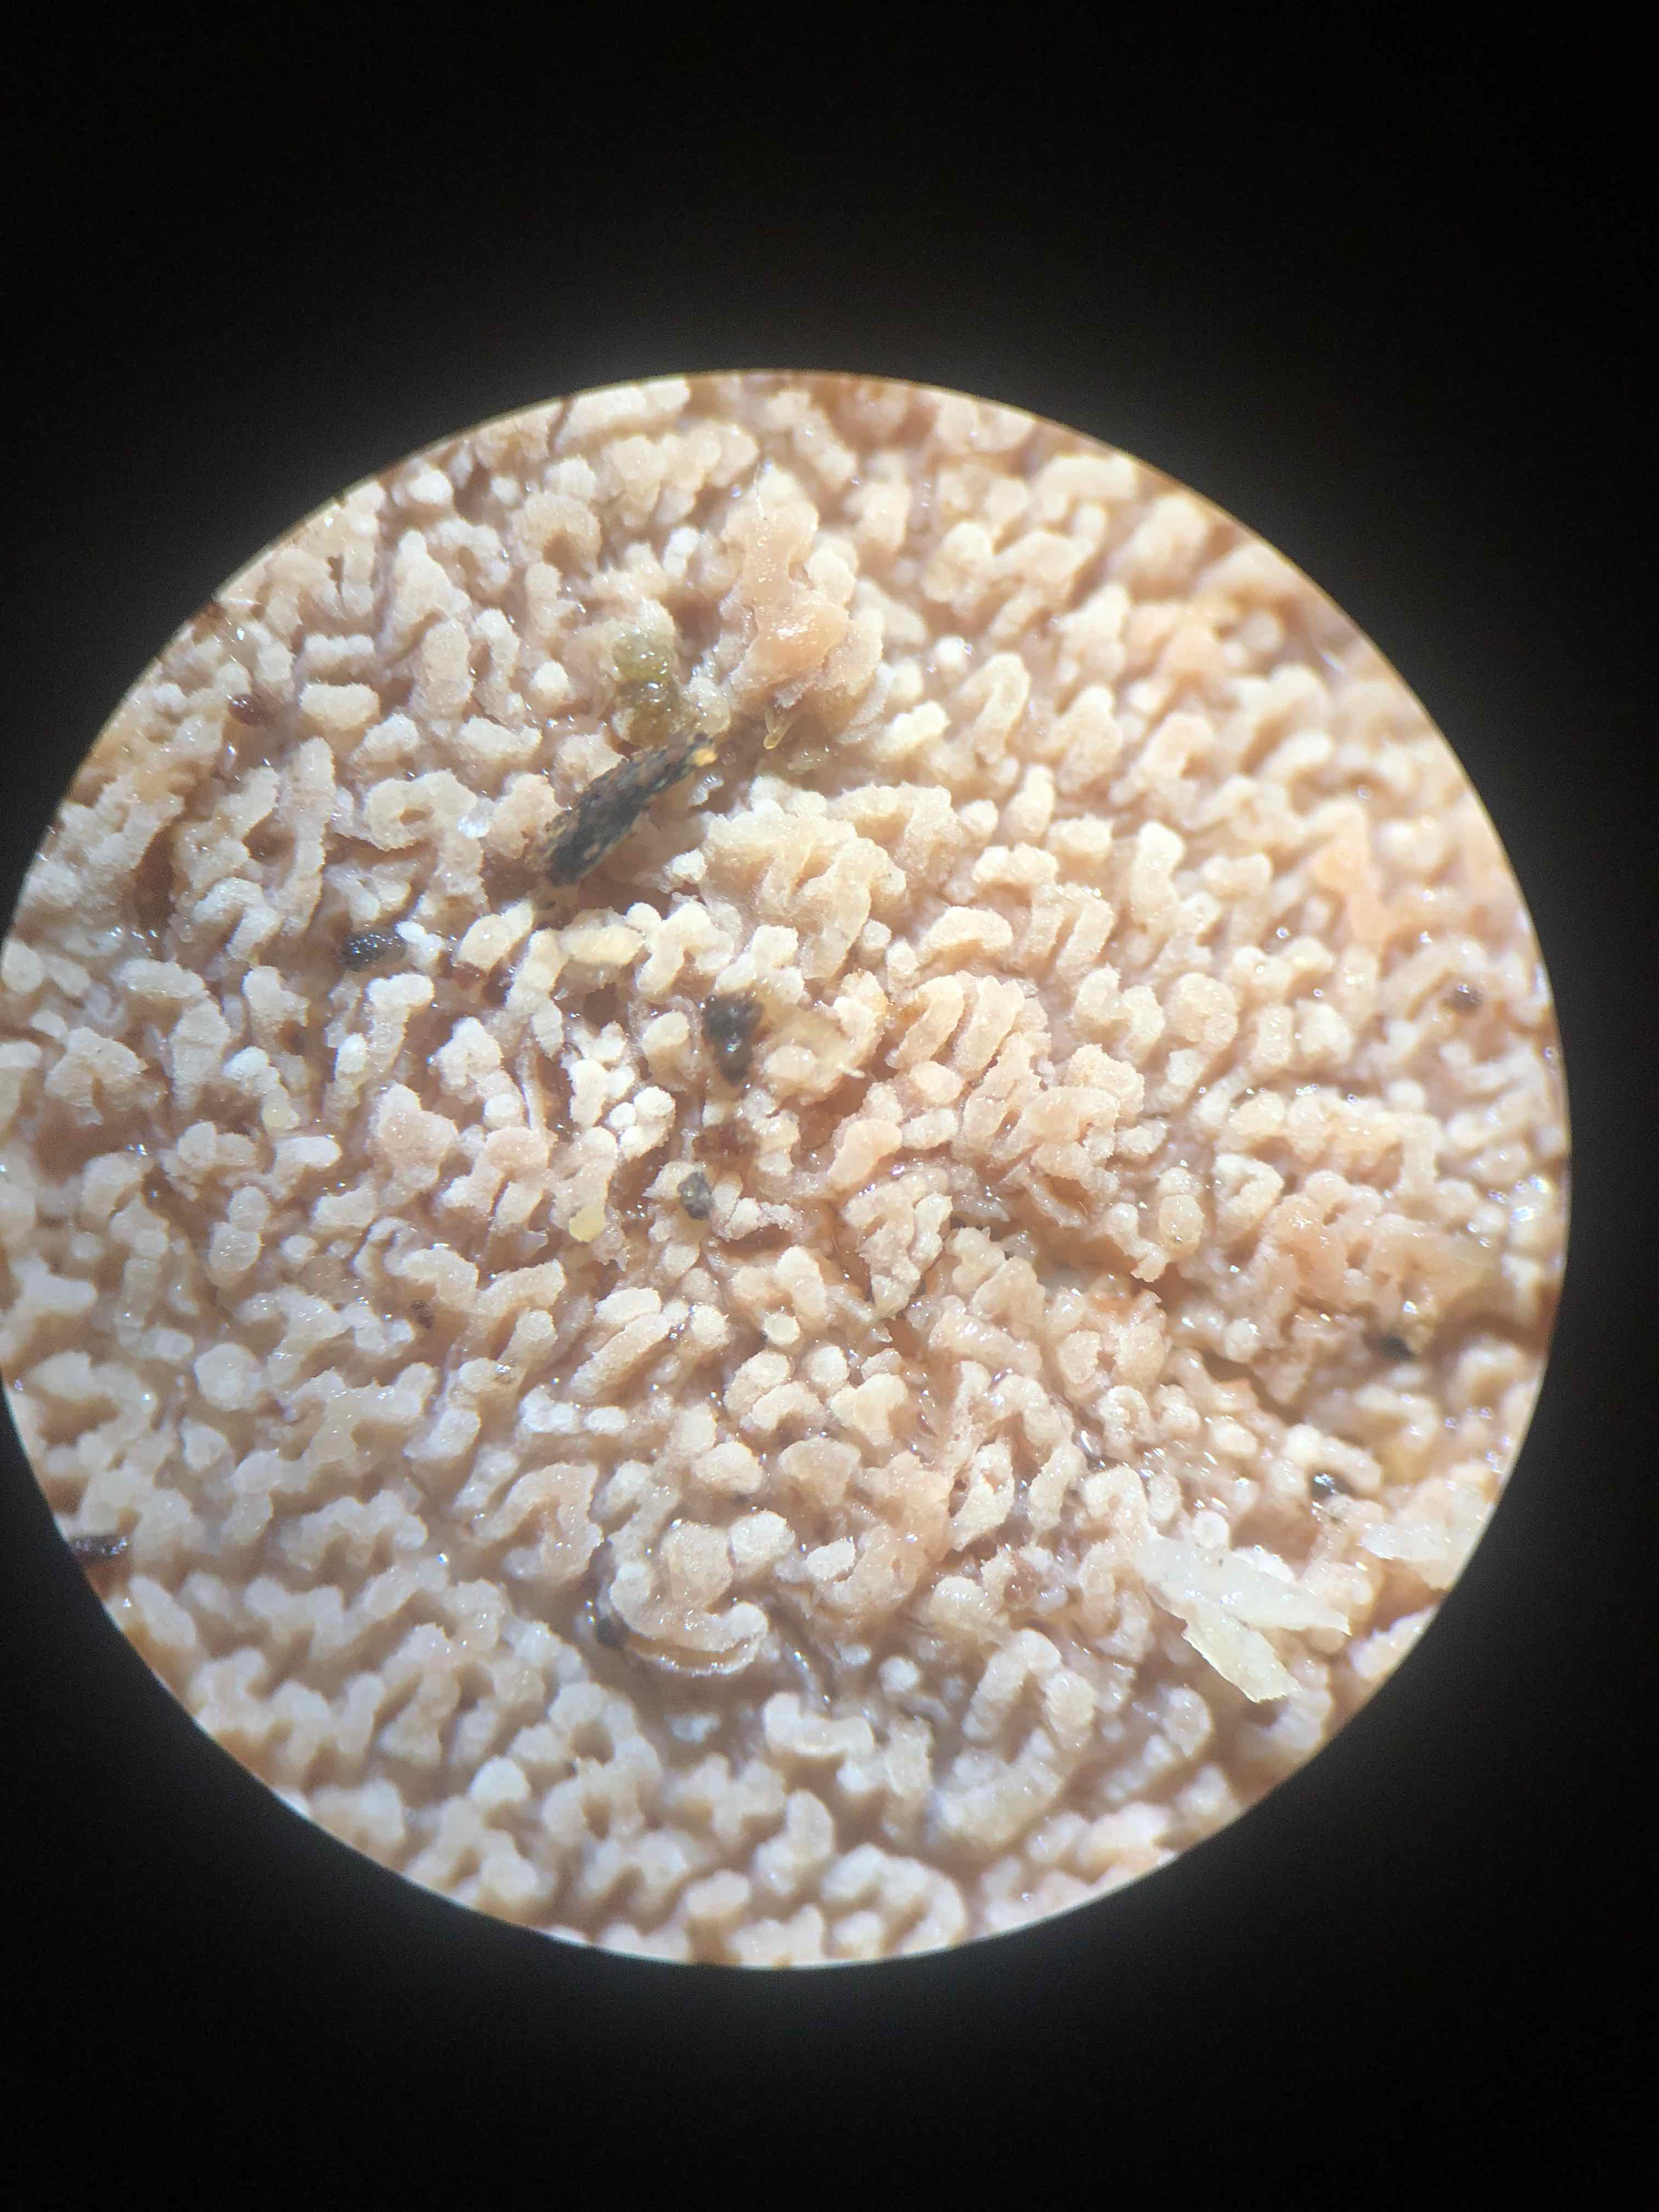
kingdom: Fungi
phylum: Basidiomycota
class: Agaricomycetes
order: Polyporales
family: Meruliaceae
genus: Phlebia
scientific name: Phlebia rufa
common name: ege-åresvamp
